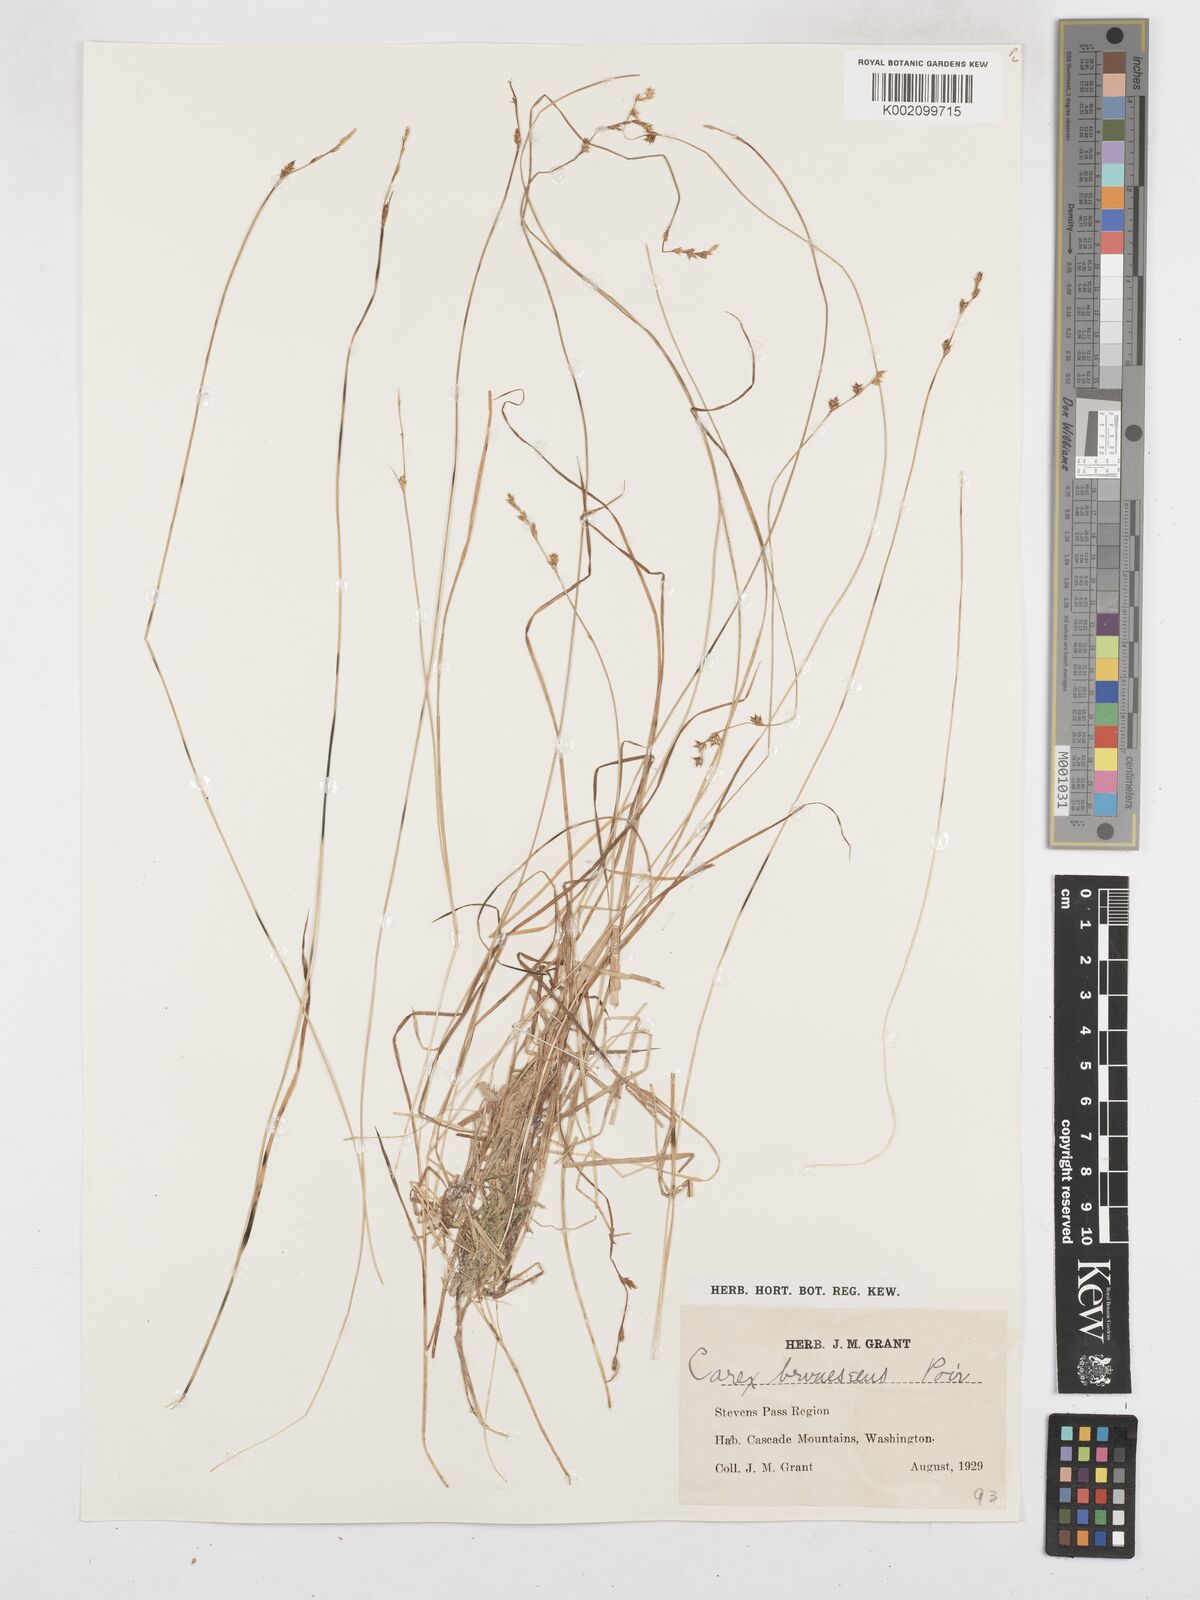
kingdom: Plantae
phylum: Tracheophyta
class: Liliopsida
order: Poales
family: Cyperaceae
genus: Carex
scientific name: Carex brunnescens
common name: Brown sedge
